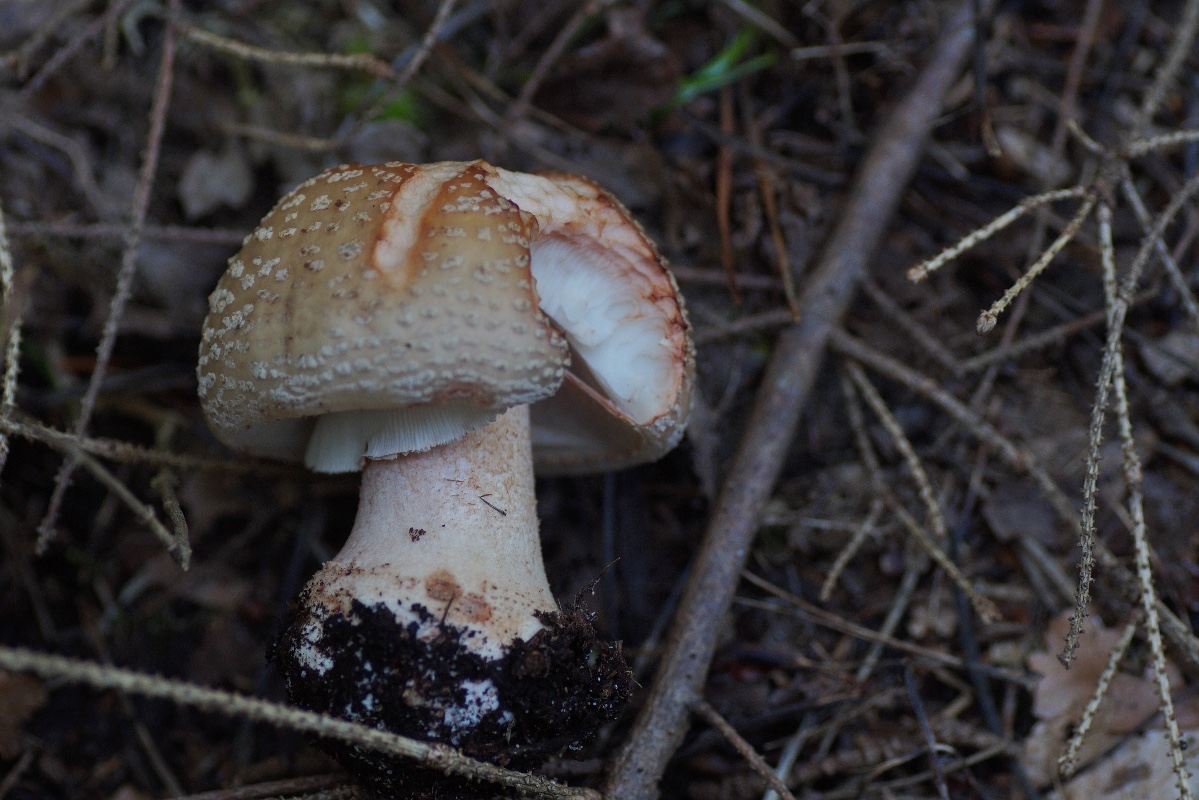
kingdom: Fungi
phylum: Basidiomycota
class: Agaricomycetes
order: Agaricales
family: Amanitaceae
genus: Amanita
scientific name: Amanita rubescens
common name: rødmende fluesvamp
